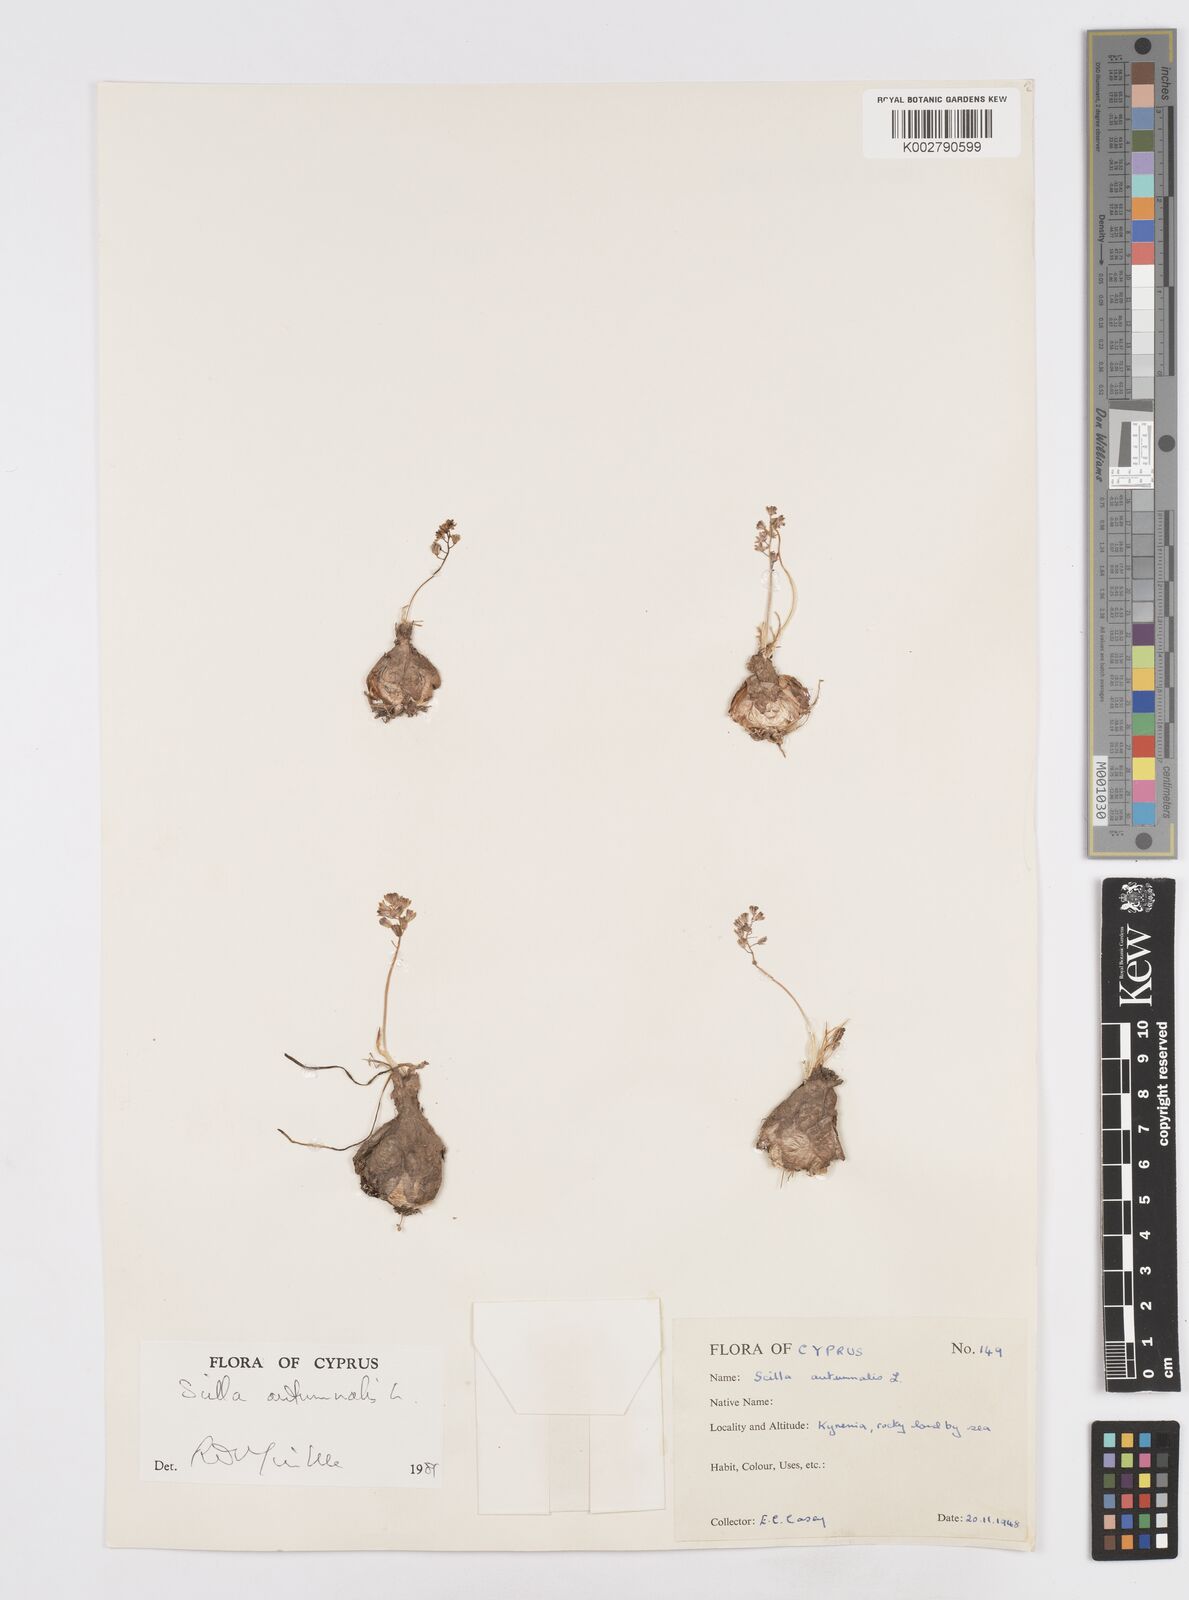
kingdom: Plantae
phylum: Tracheophyta
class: Liliopsida
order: Asparagales
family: Asparagaceae
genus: Prospero
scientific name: Prospero autumnale
